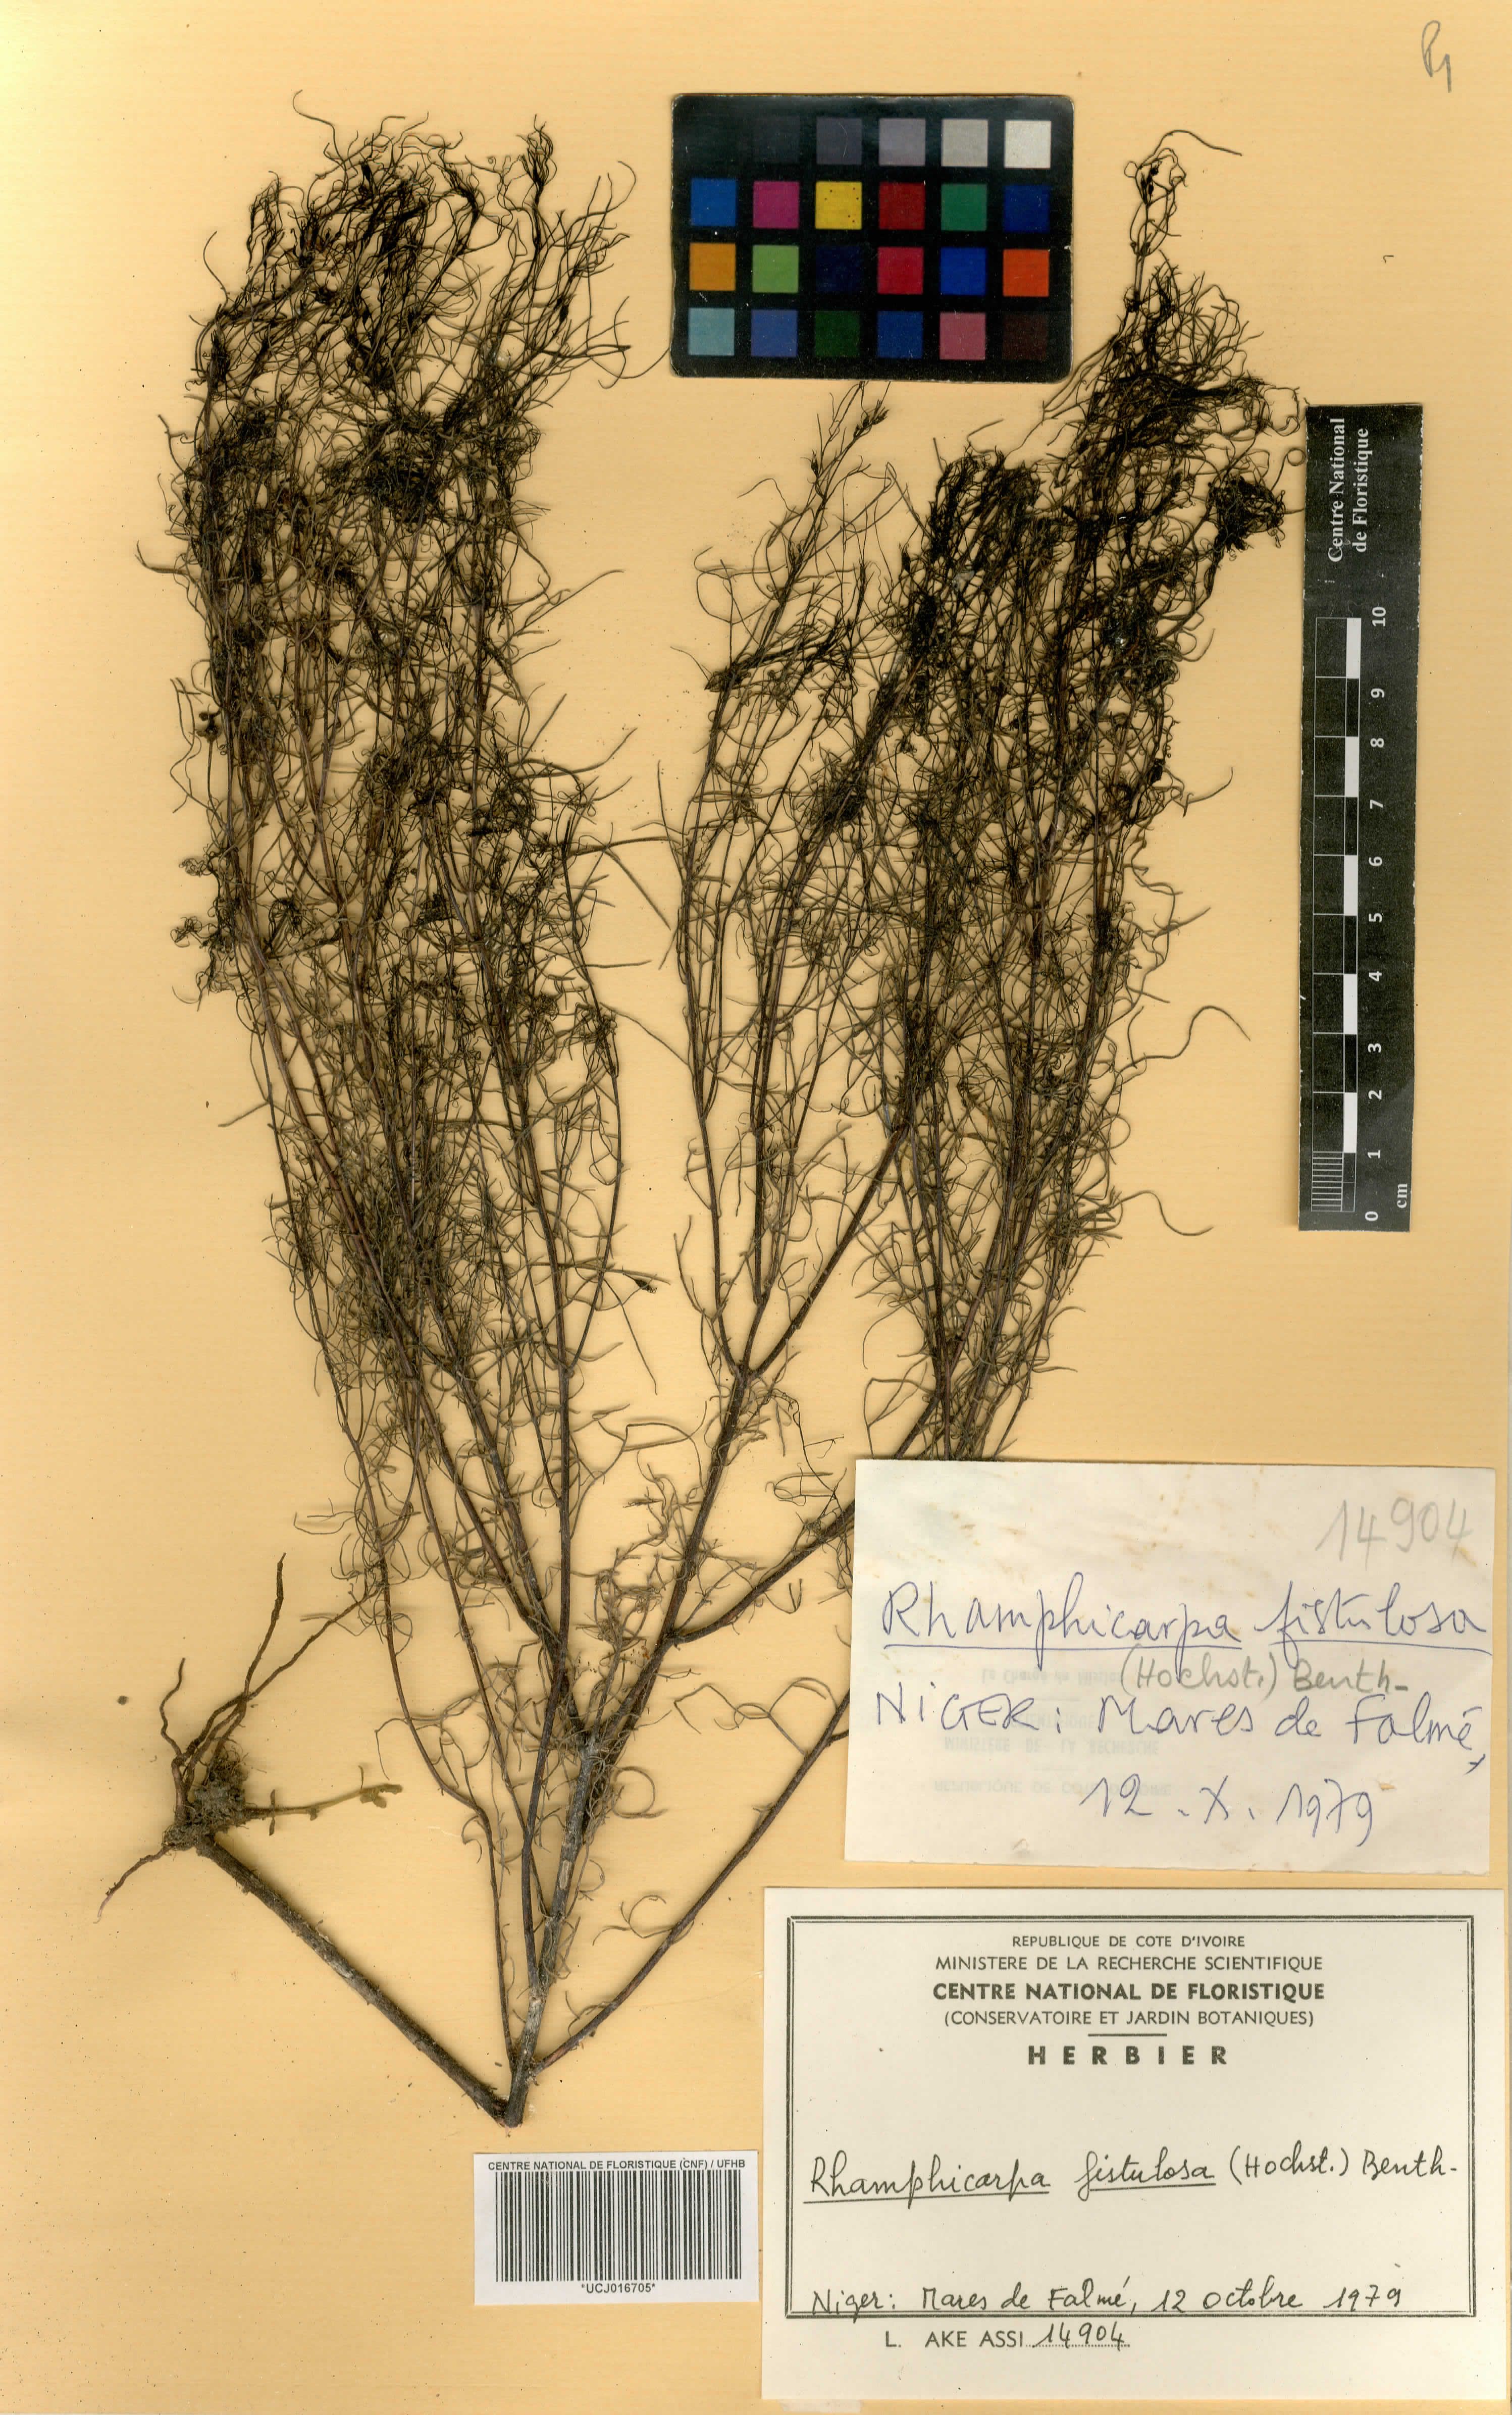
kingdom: Plantae
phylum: Tracheophyta
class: Magnoliopsida
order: Lamiales
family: Orobanchaceae
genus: Rhamphicarpa
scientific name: Rhamphicarpa fistulosa
